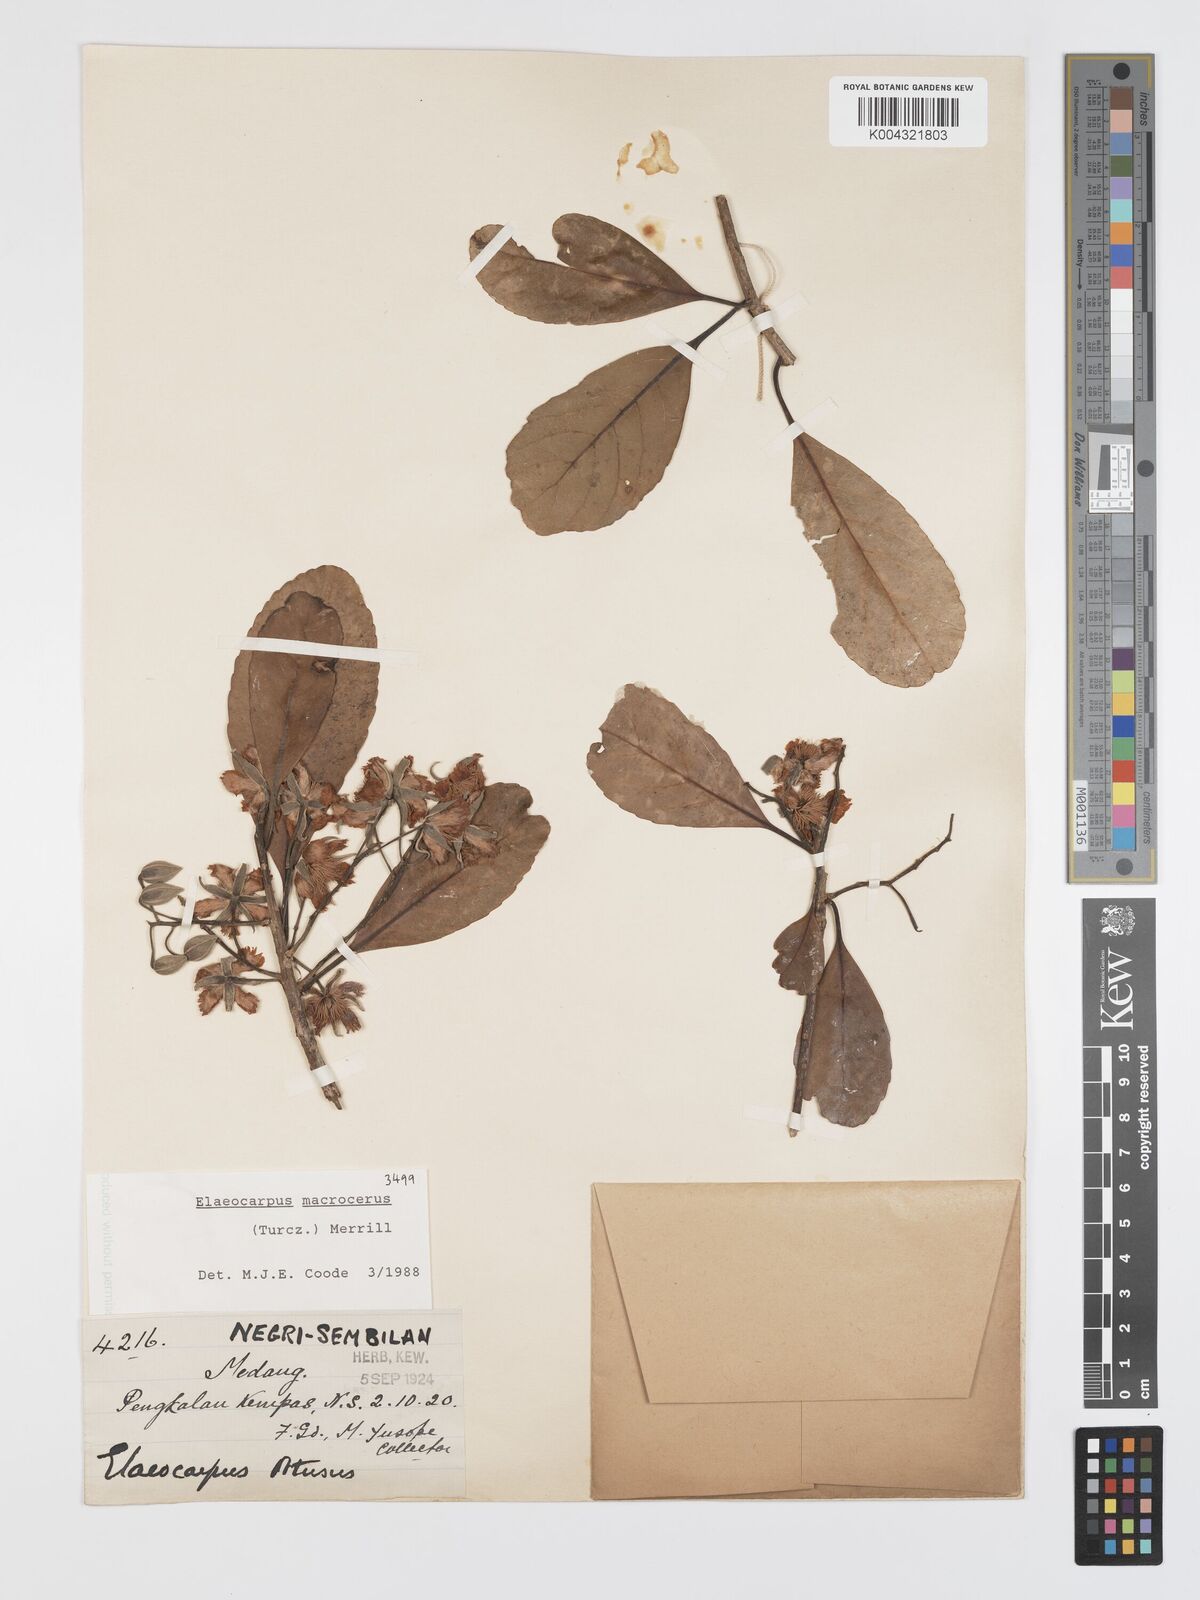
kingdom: Plantae
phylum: Tracheophyta
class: Magnoliopsida
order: Oxalidales
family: Elaeocarpaceae
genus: Elaeocarpus
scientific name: Elaeocarpus macrocerus
